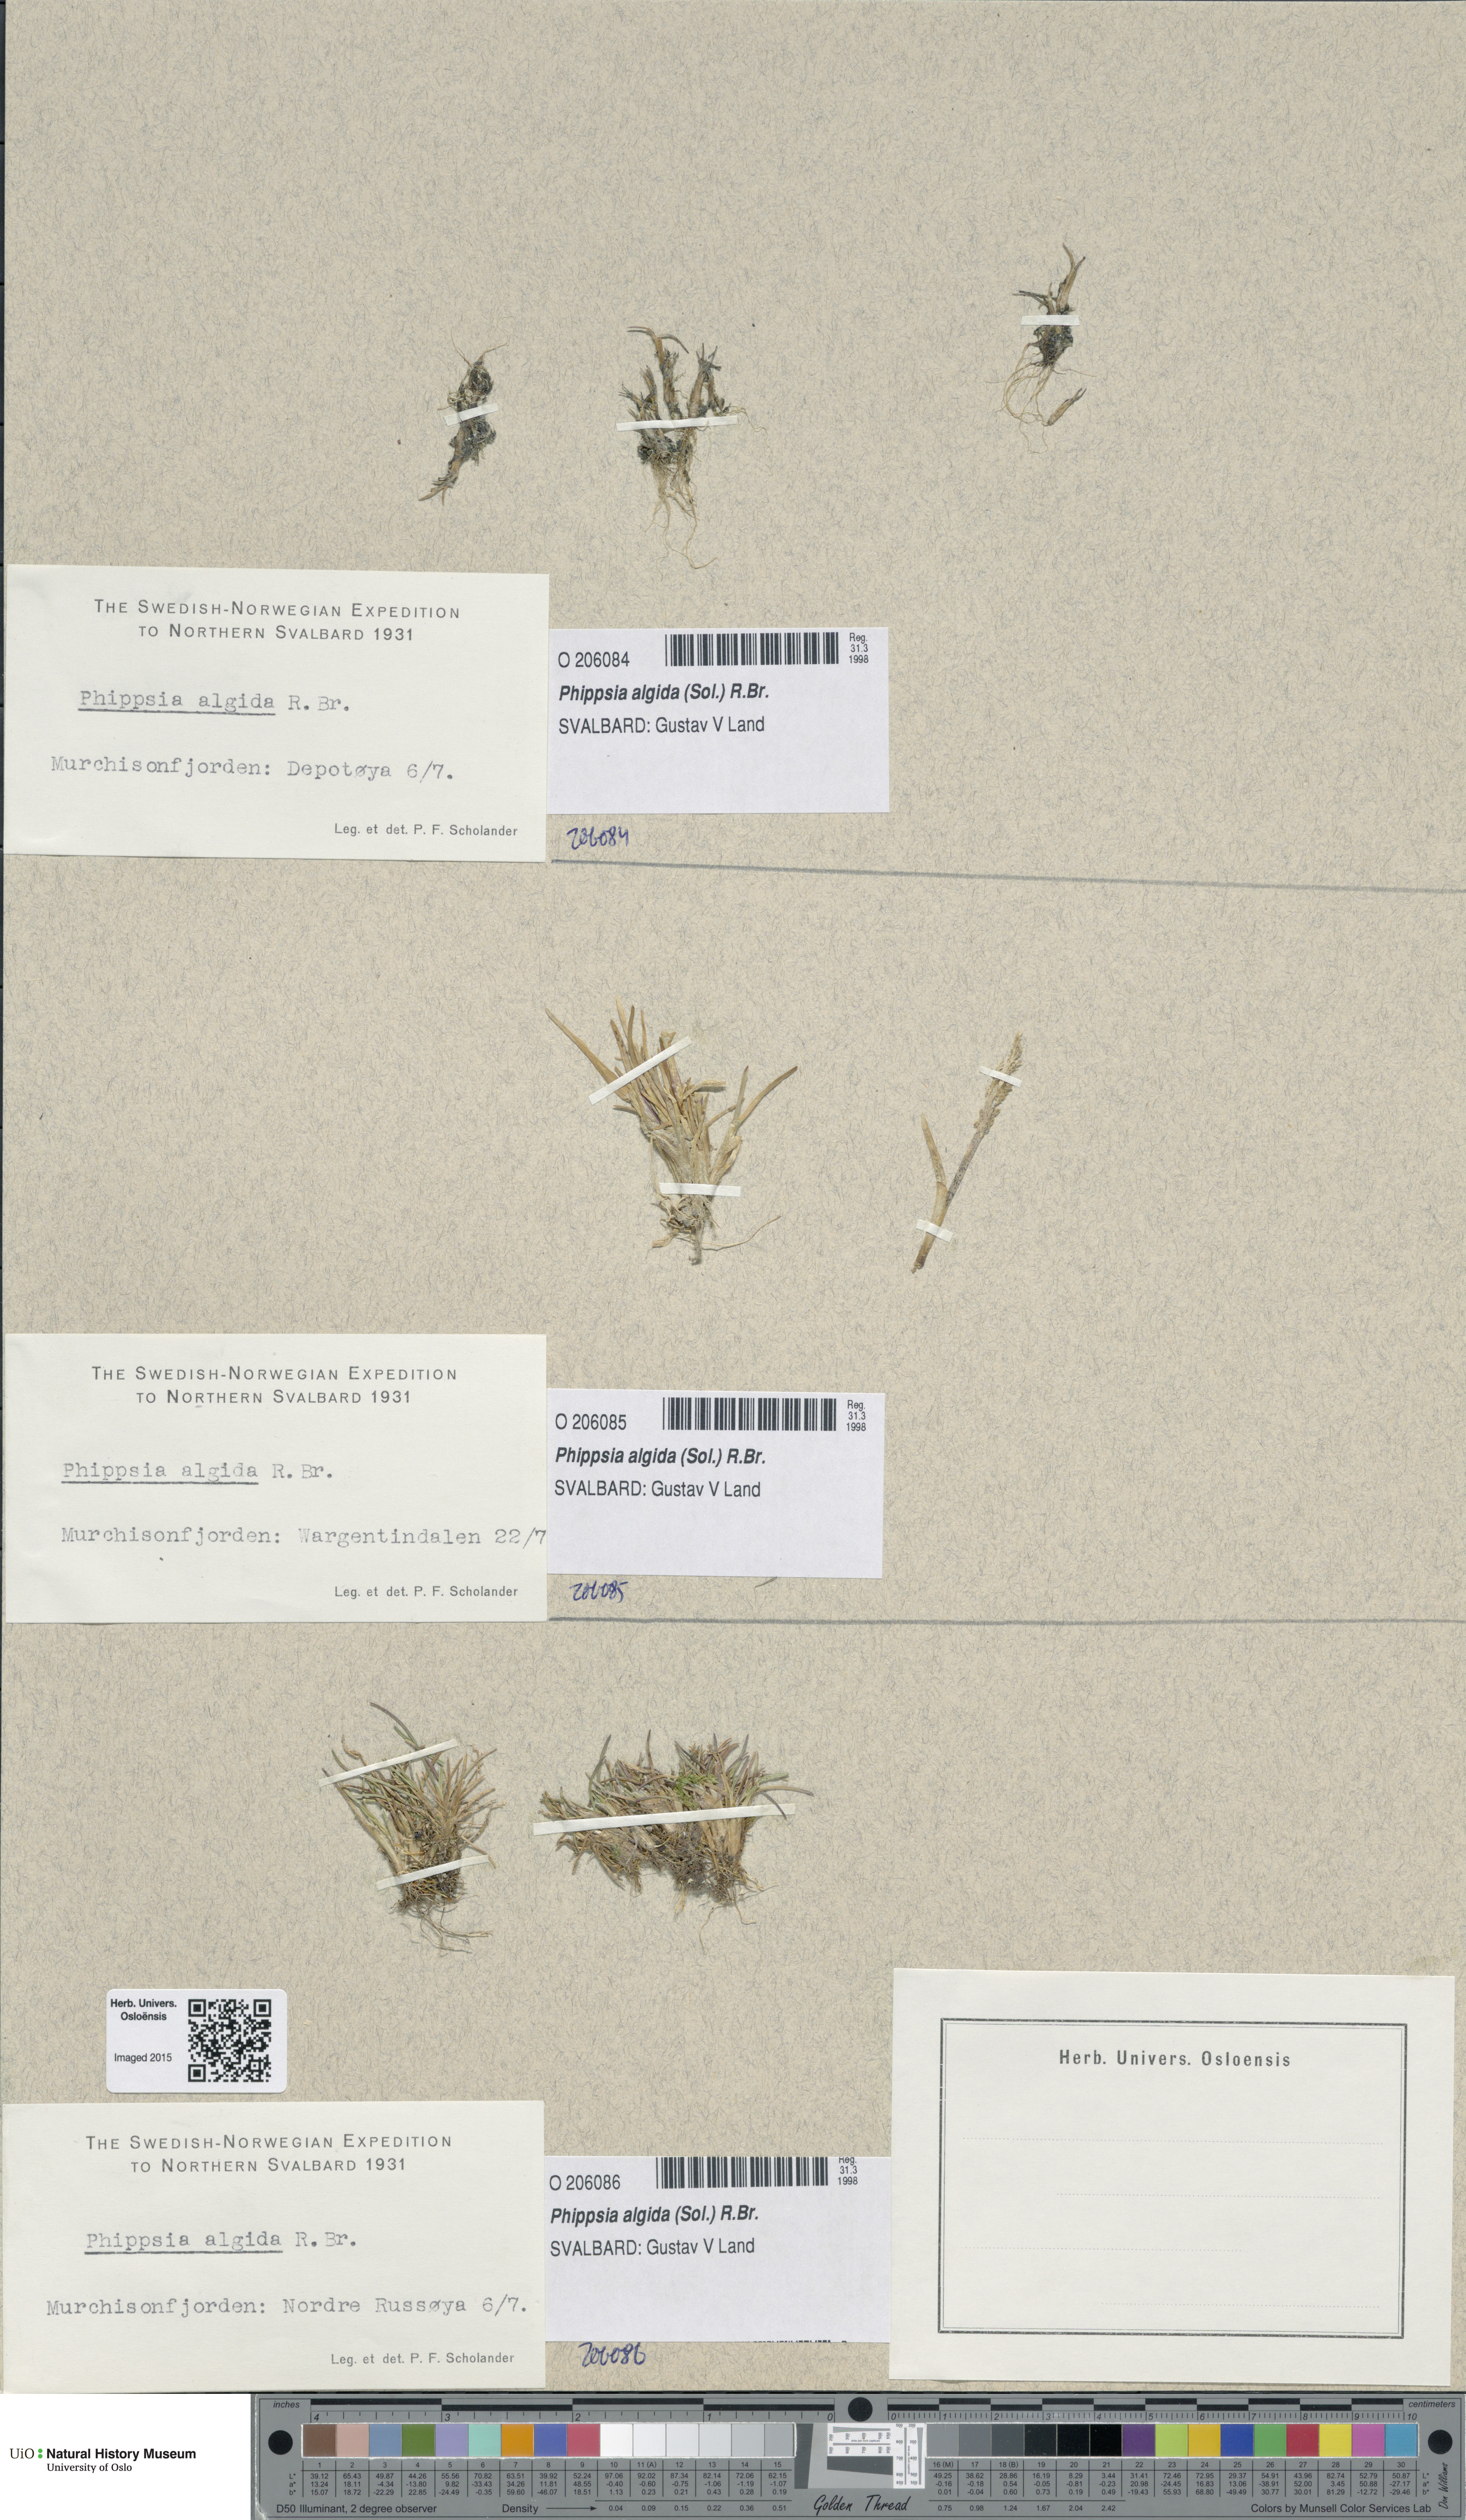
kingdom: Plantae
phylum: Tracheophyta
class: Liliopsida
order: Poales
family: Poaceae
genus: Phippsia
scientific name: Phippsia algida
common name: Ice grass
